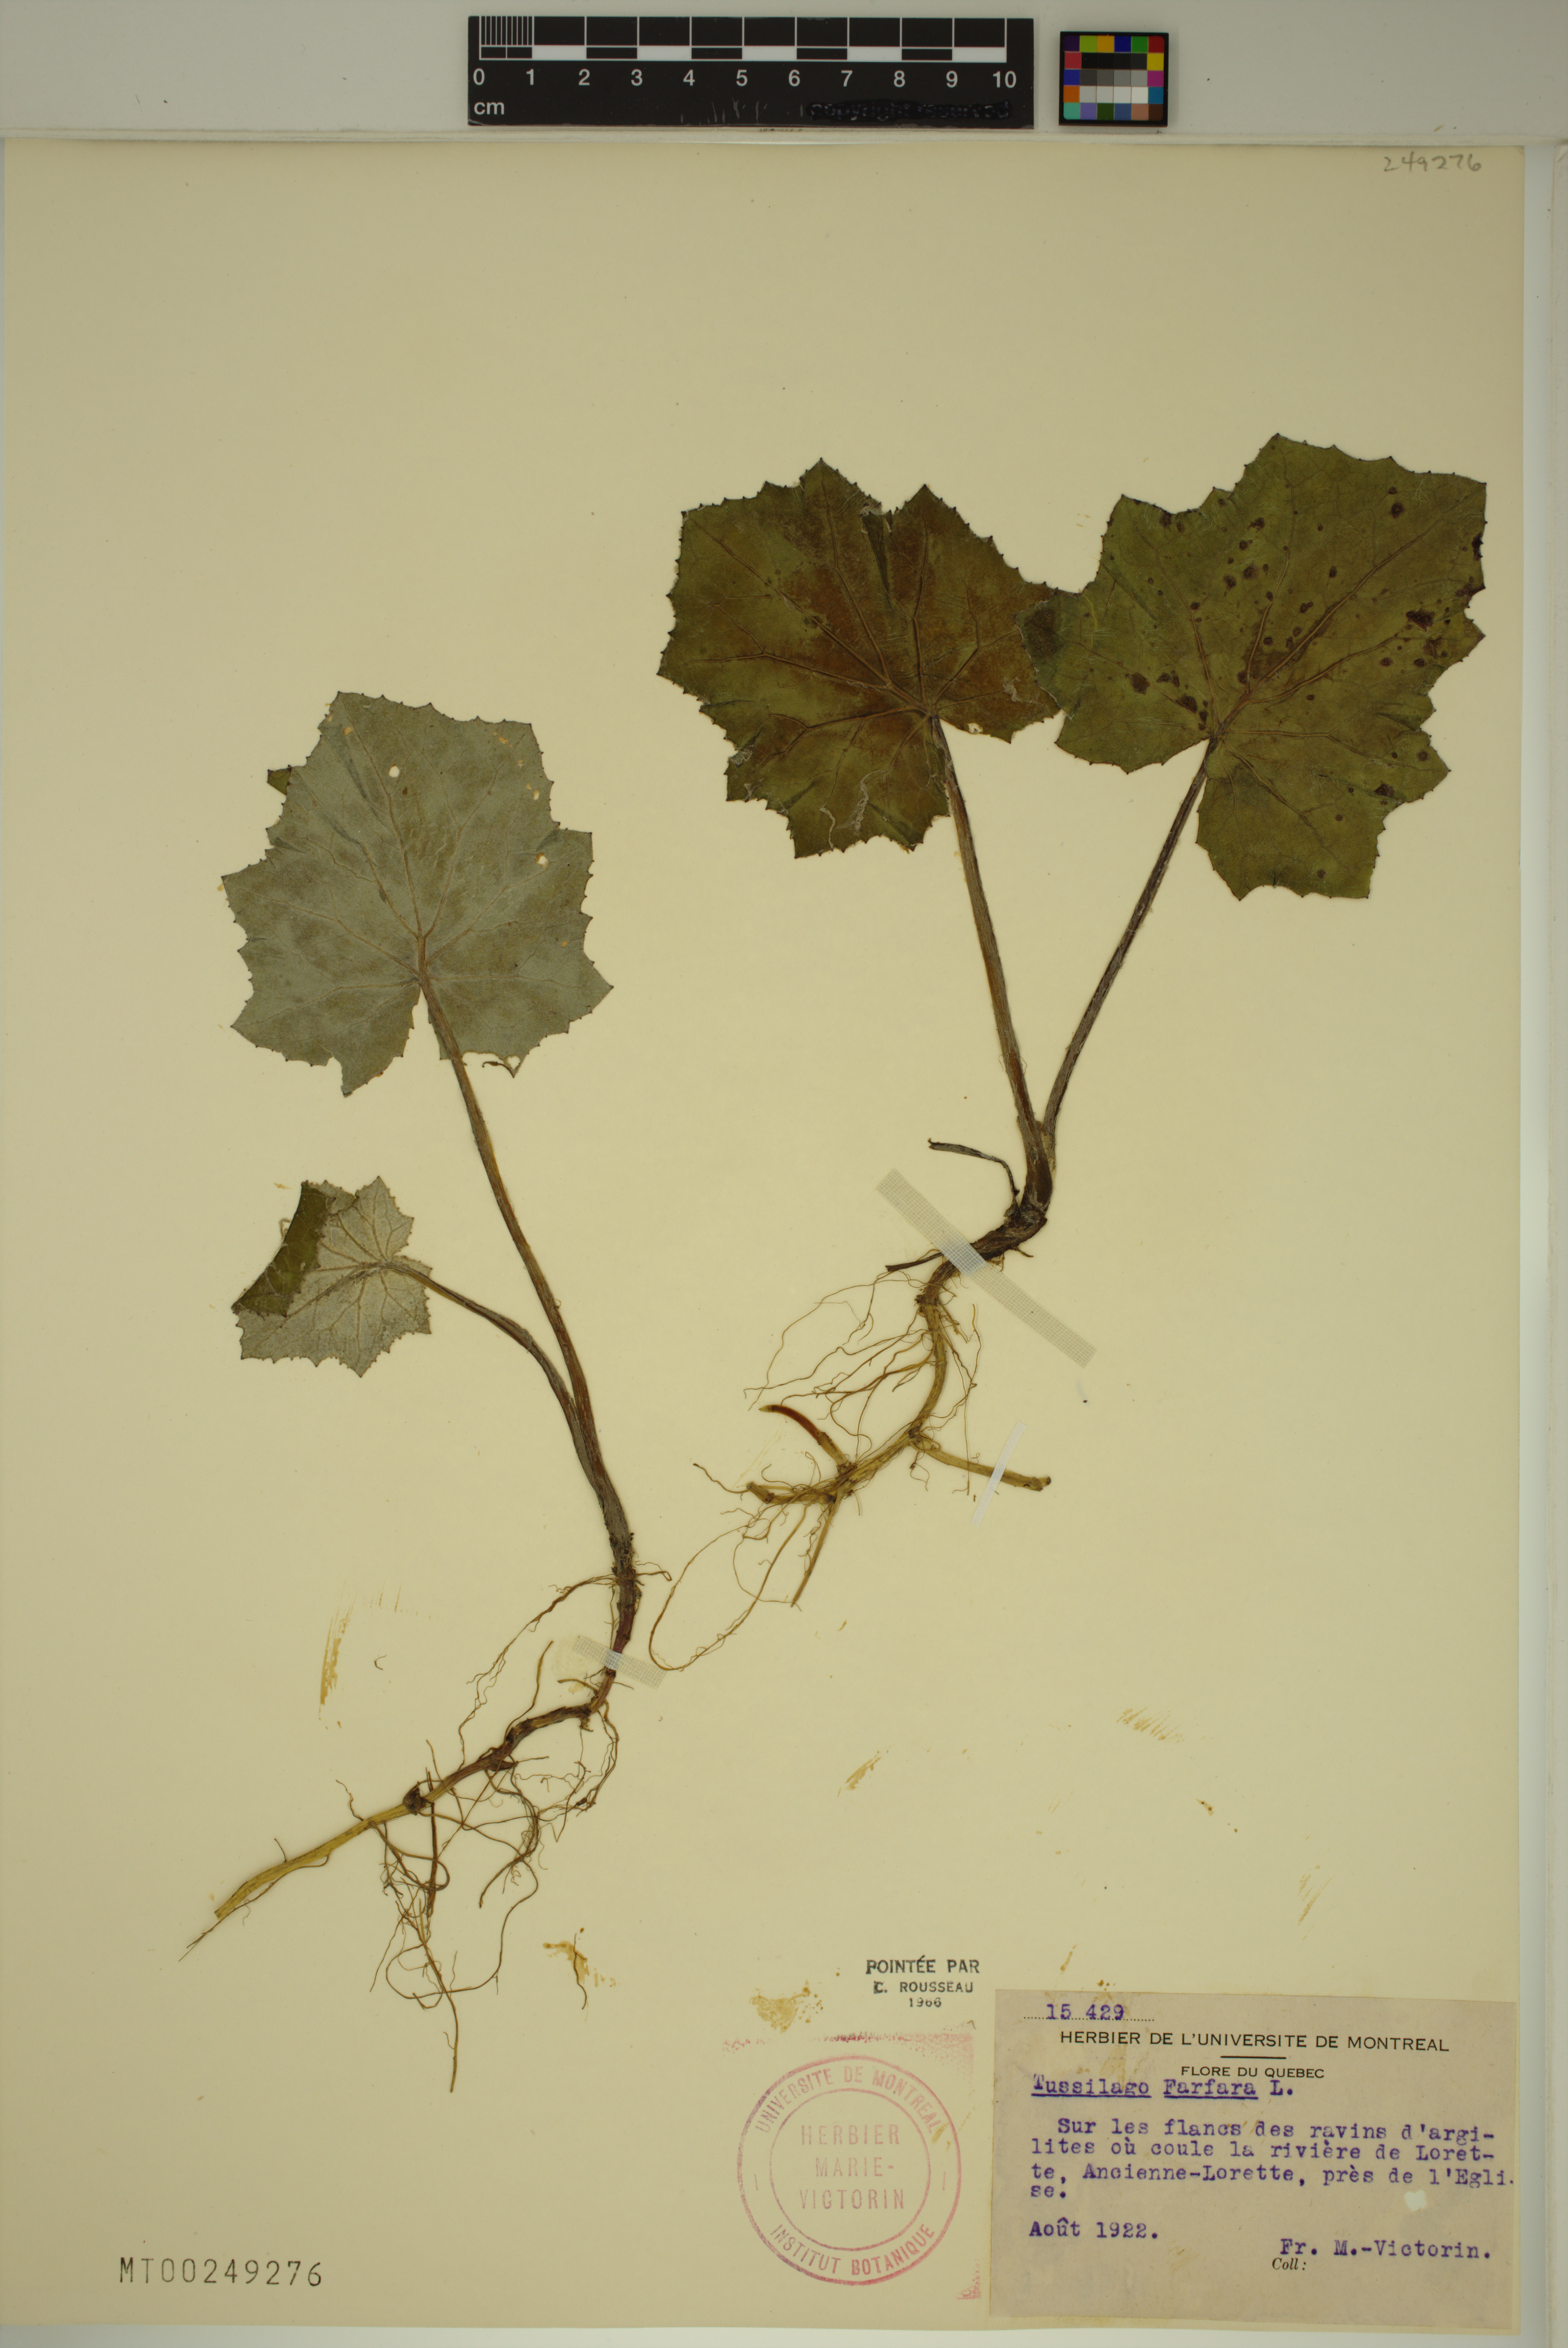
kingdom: Plantae
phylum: Tracheophyta
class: Magnoliopsida
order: Asterales
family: Asteraceae
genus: Tussilago
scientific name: Tussilago farfara
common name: Coltsfoot
